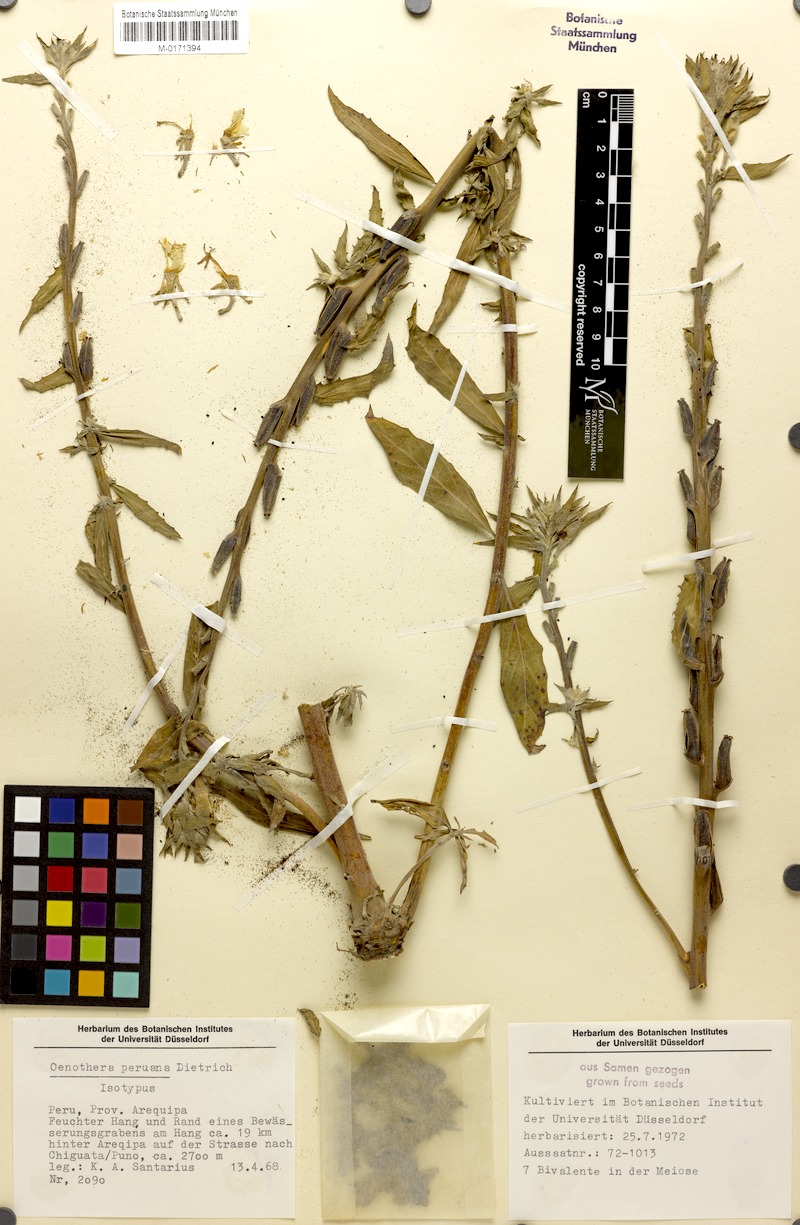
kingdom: Plantae
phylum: Tracheophyta
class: Magnoliopsida
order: Myrtales
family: Onagraceae
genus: Oenothera
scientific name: Oenothera peruana
